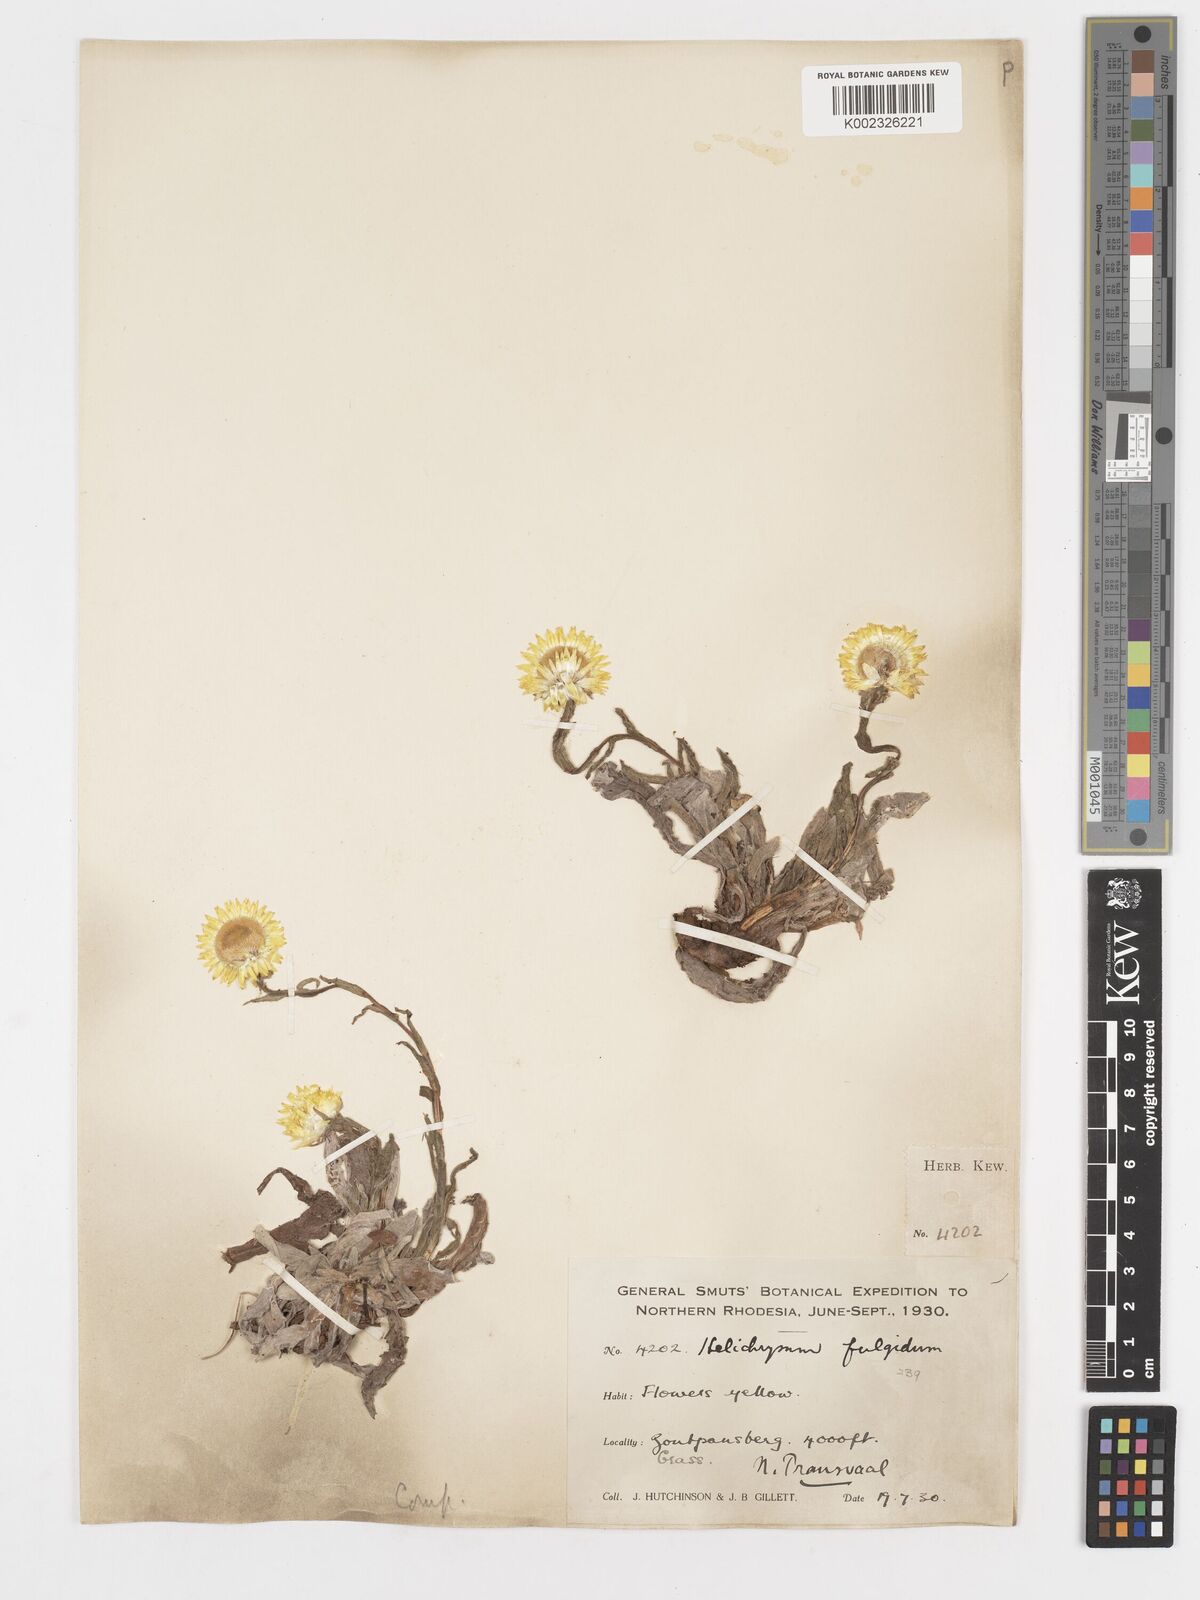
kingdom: Plantae
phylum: Tracheophyta
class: Magnoliopsida
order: Asterales
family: Asteraceae
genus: Helichrysum
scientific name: Helichrysum aureum
